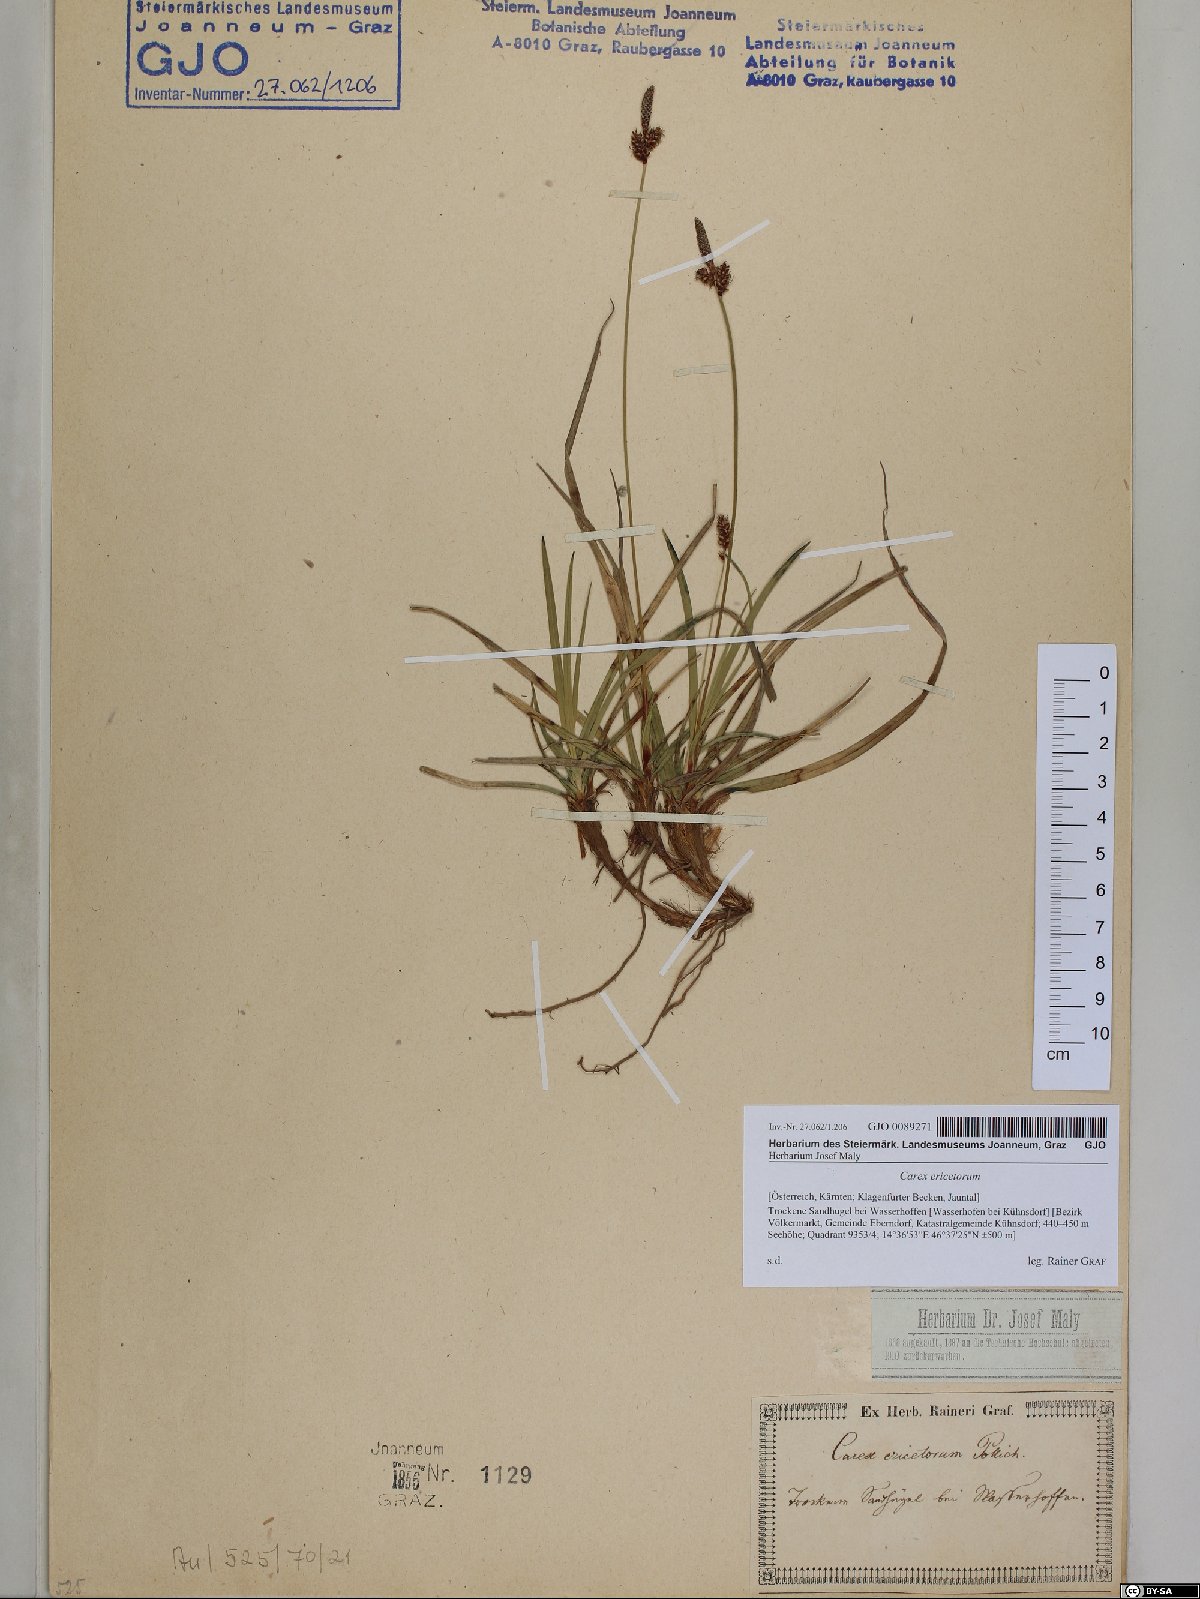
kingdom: Plantae
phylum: Tracheophyta
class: Liliopsida
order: Poales
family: Cyperaceae
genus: Carex
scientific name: Carex ericetorum
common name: Rare spring-sedge
